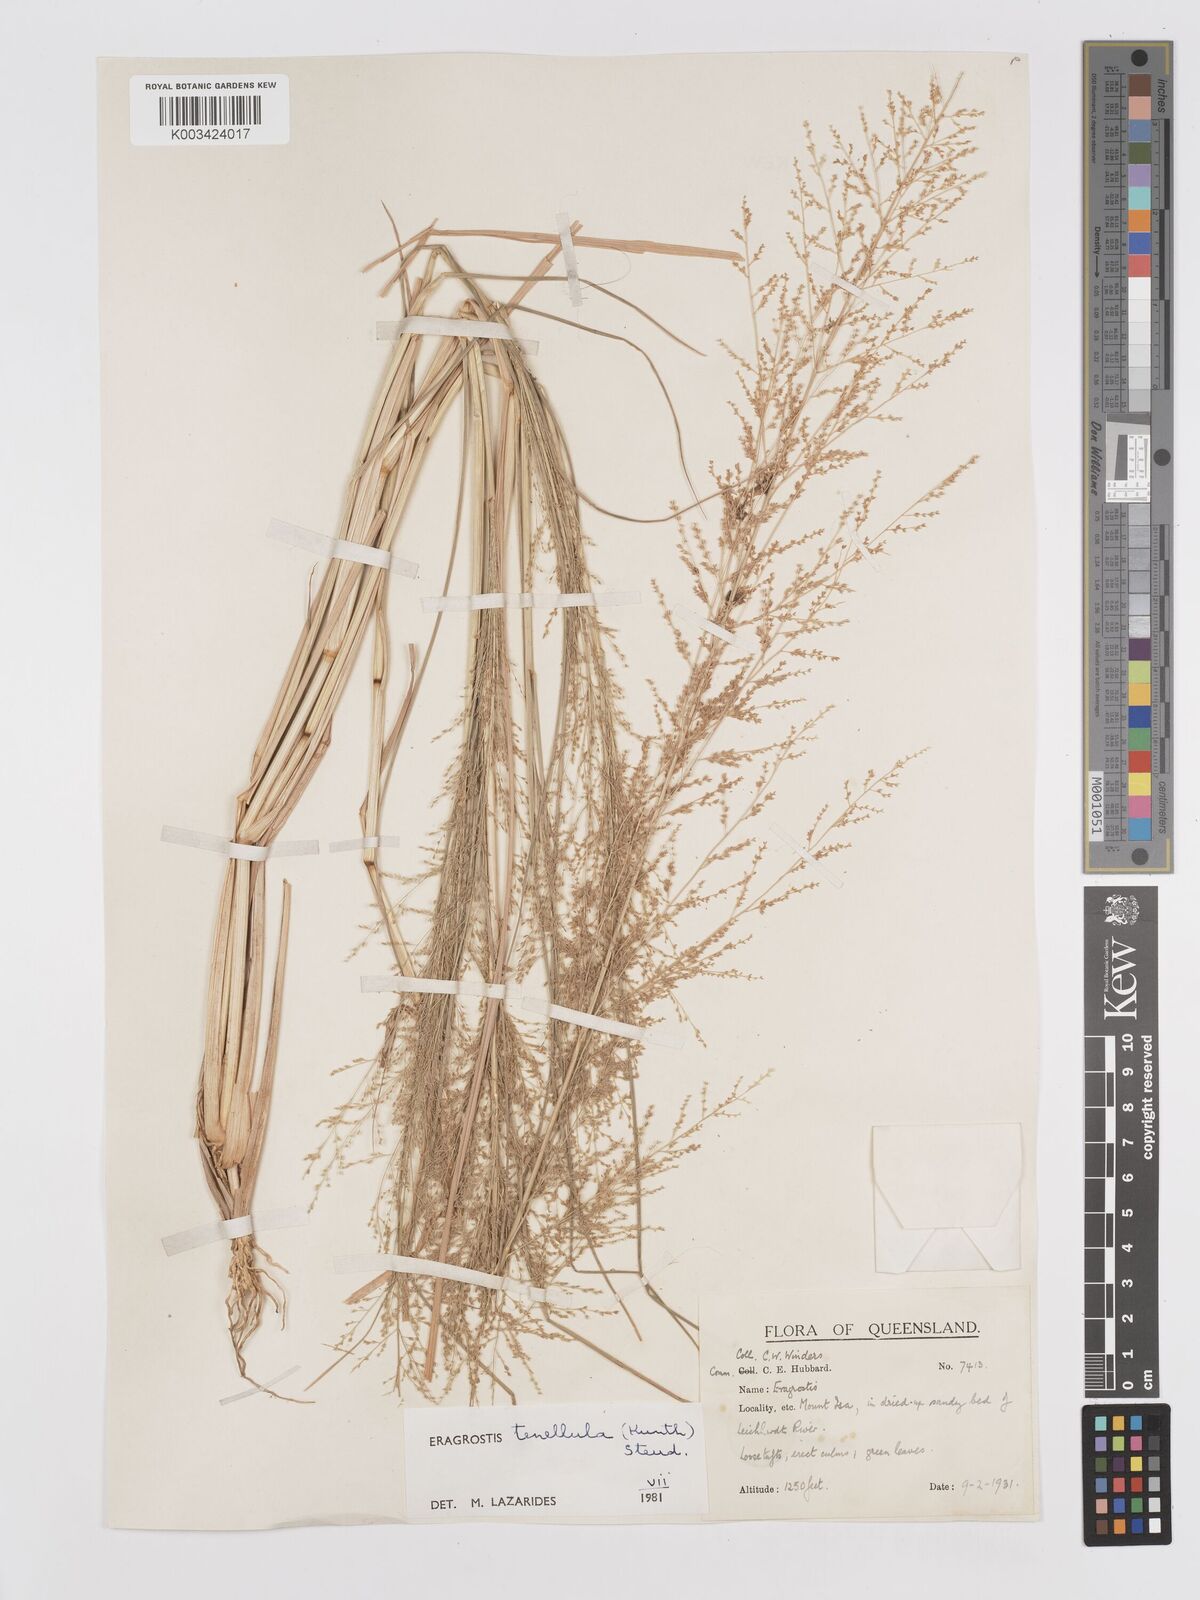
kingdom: Plantae
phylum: Tracheophyta
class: Liliopsida
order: Poales
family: Poaceae
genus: Eragrostis
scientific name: Eragrostis tenellula
